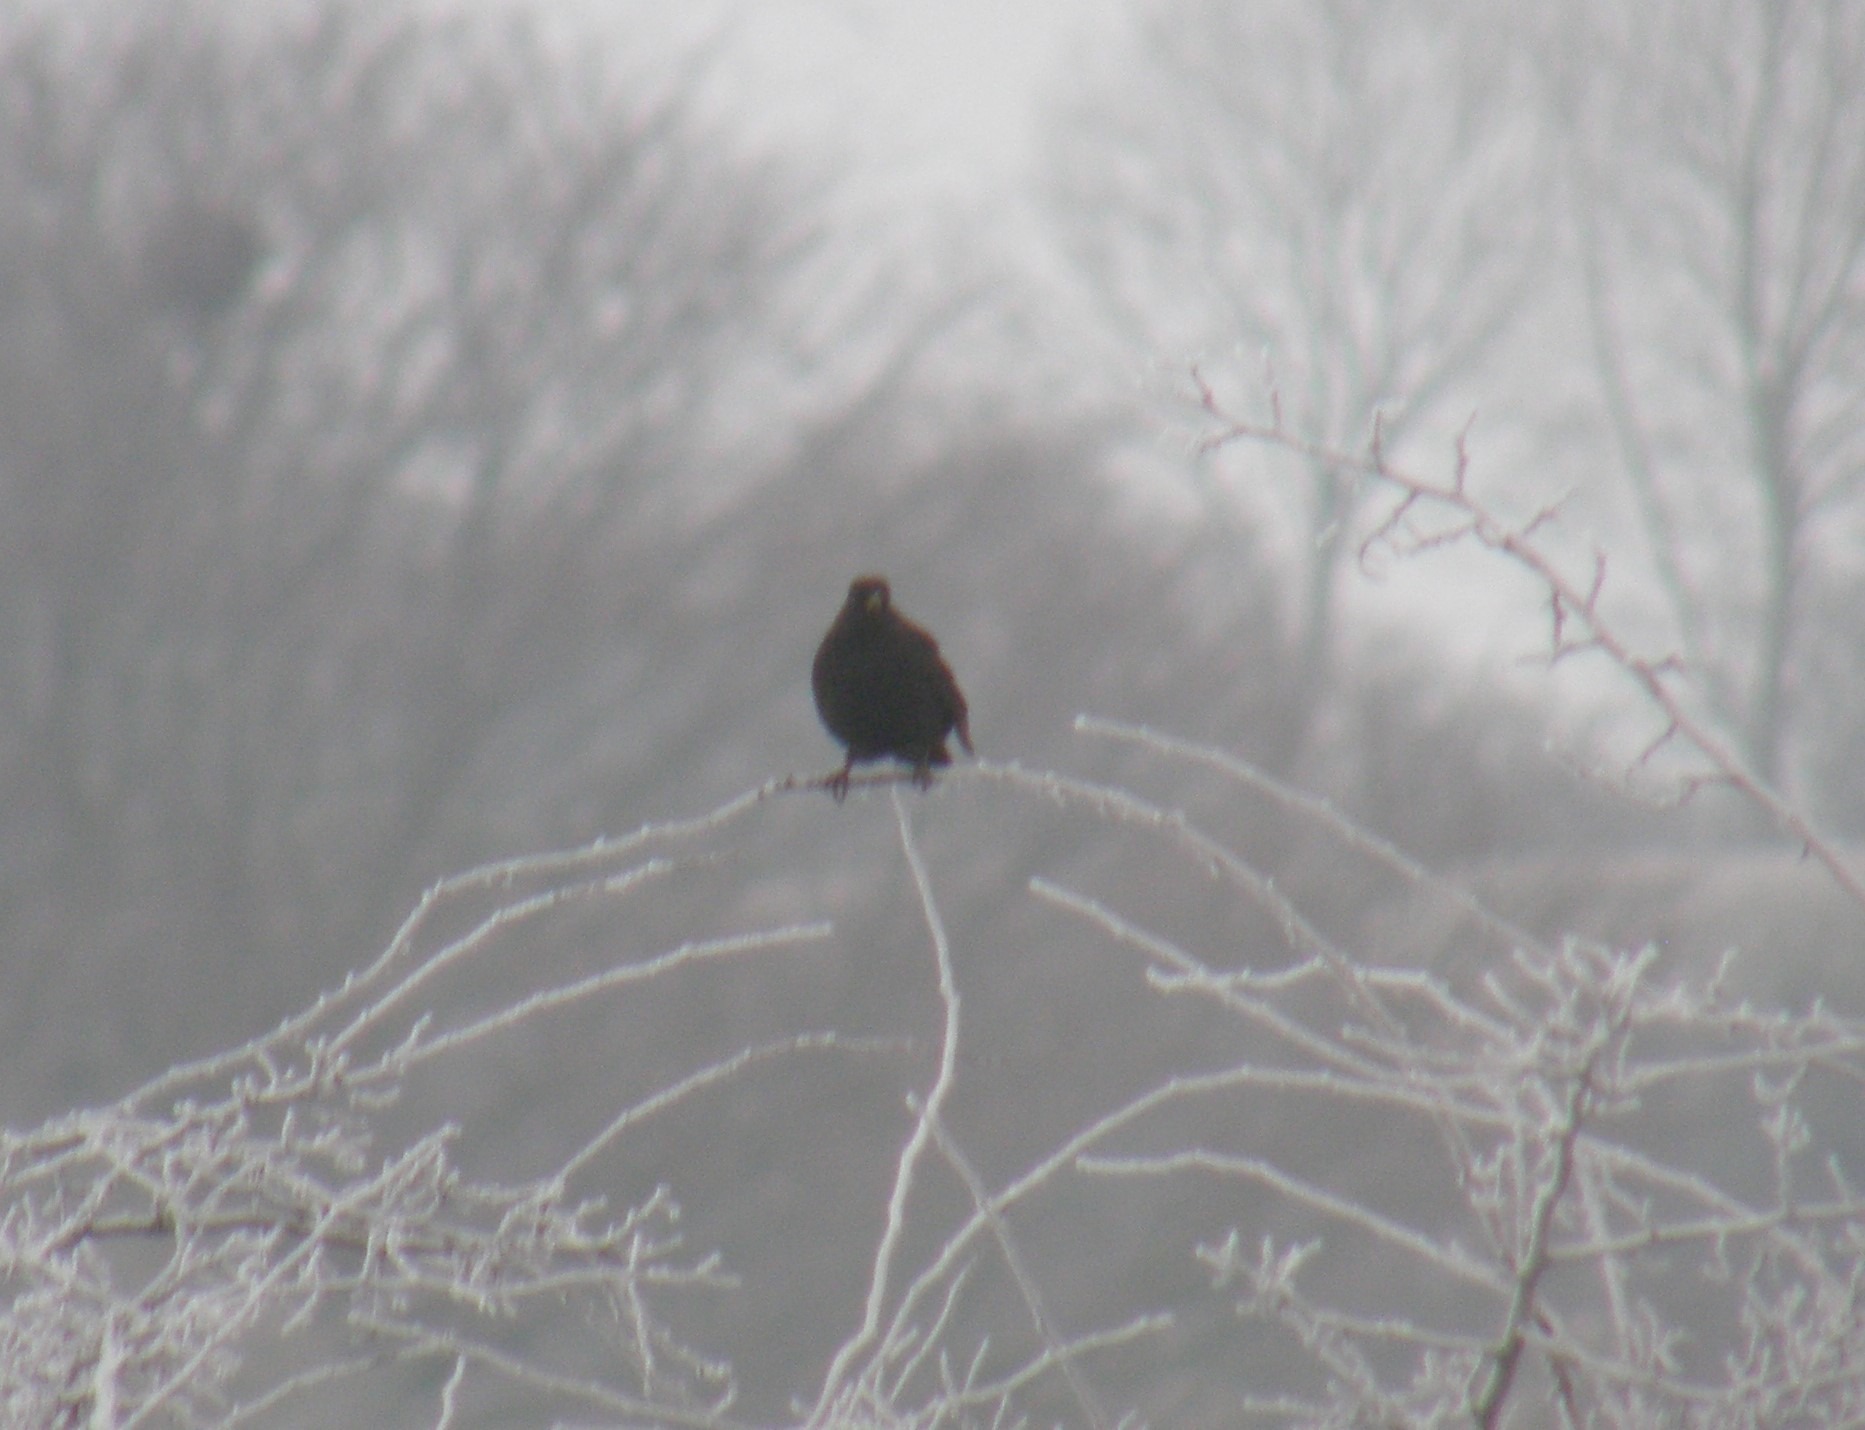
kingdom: Animalia
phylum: Chordata
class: Aves
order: Passeriformes
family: Turdidae
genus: Turdus
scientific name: Turdus merula
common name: Solsort
